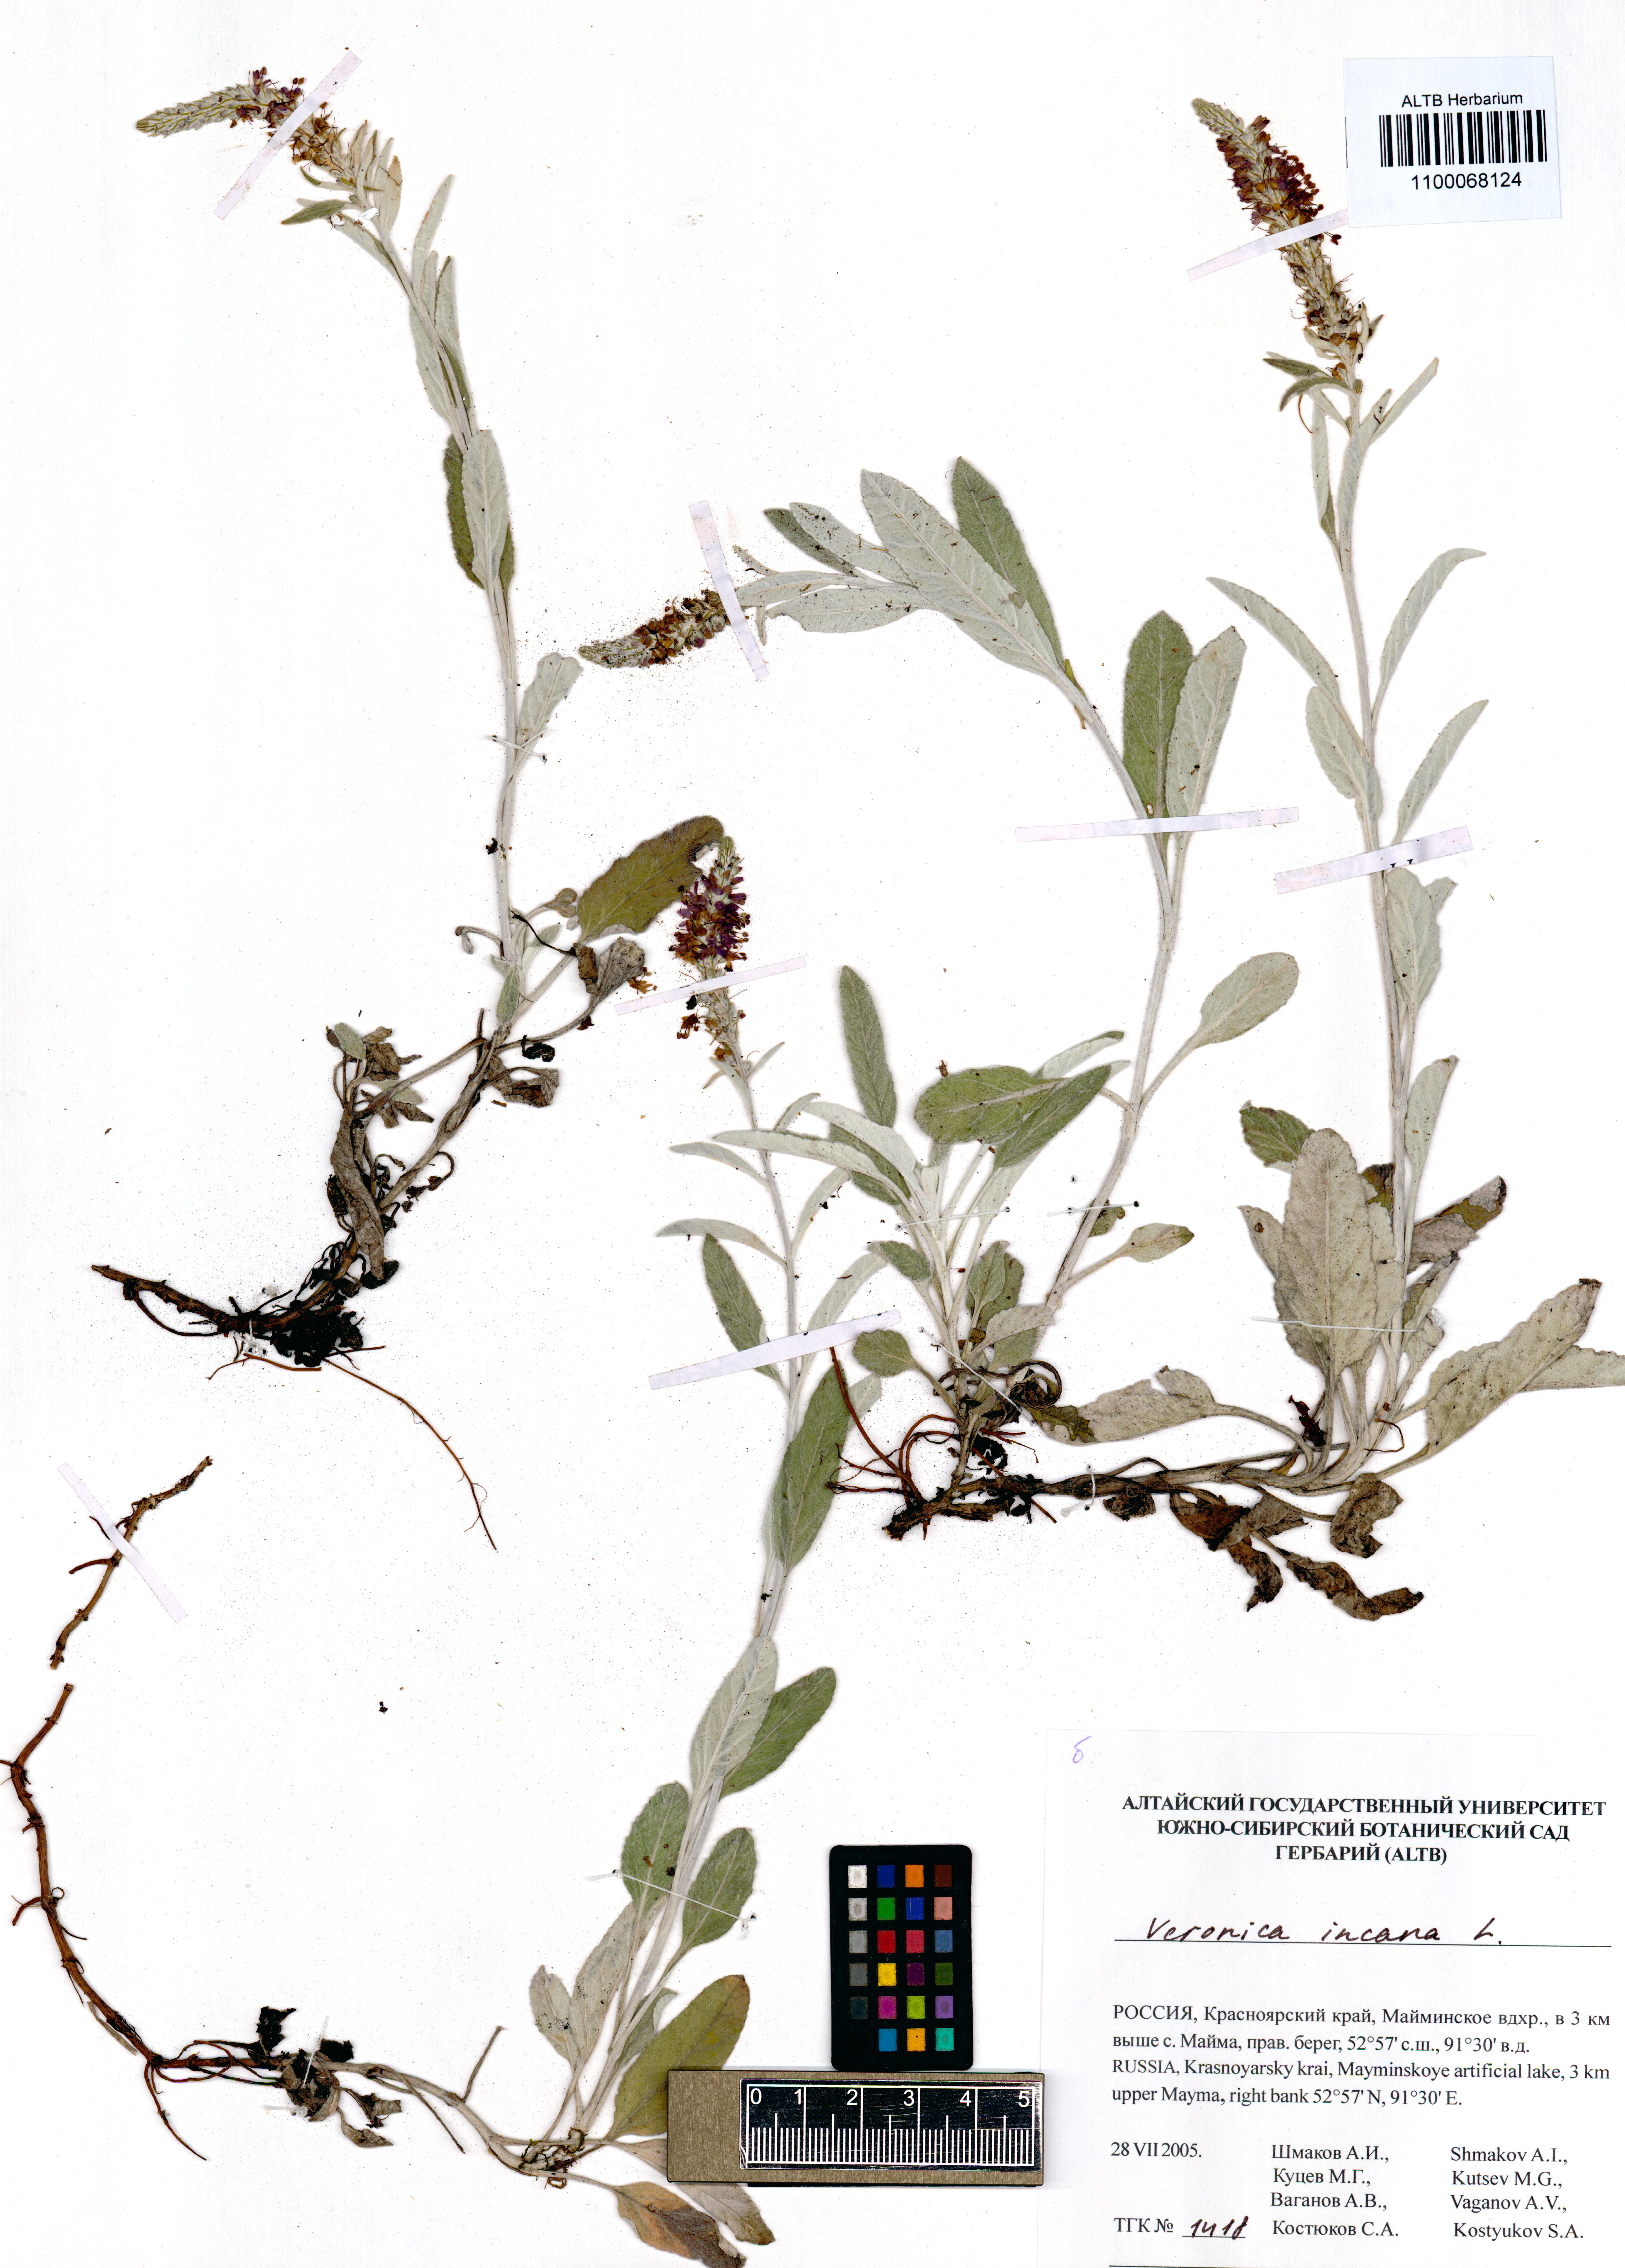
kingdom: Plantae
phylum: Tracheophyta
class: Magnoliopsida
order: Lamiales
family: Plantaginaceae
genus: Veronica
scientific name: Veronica incana
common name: Silver speedwell
